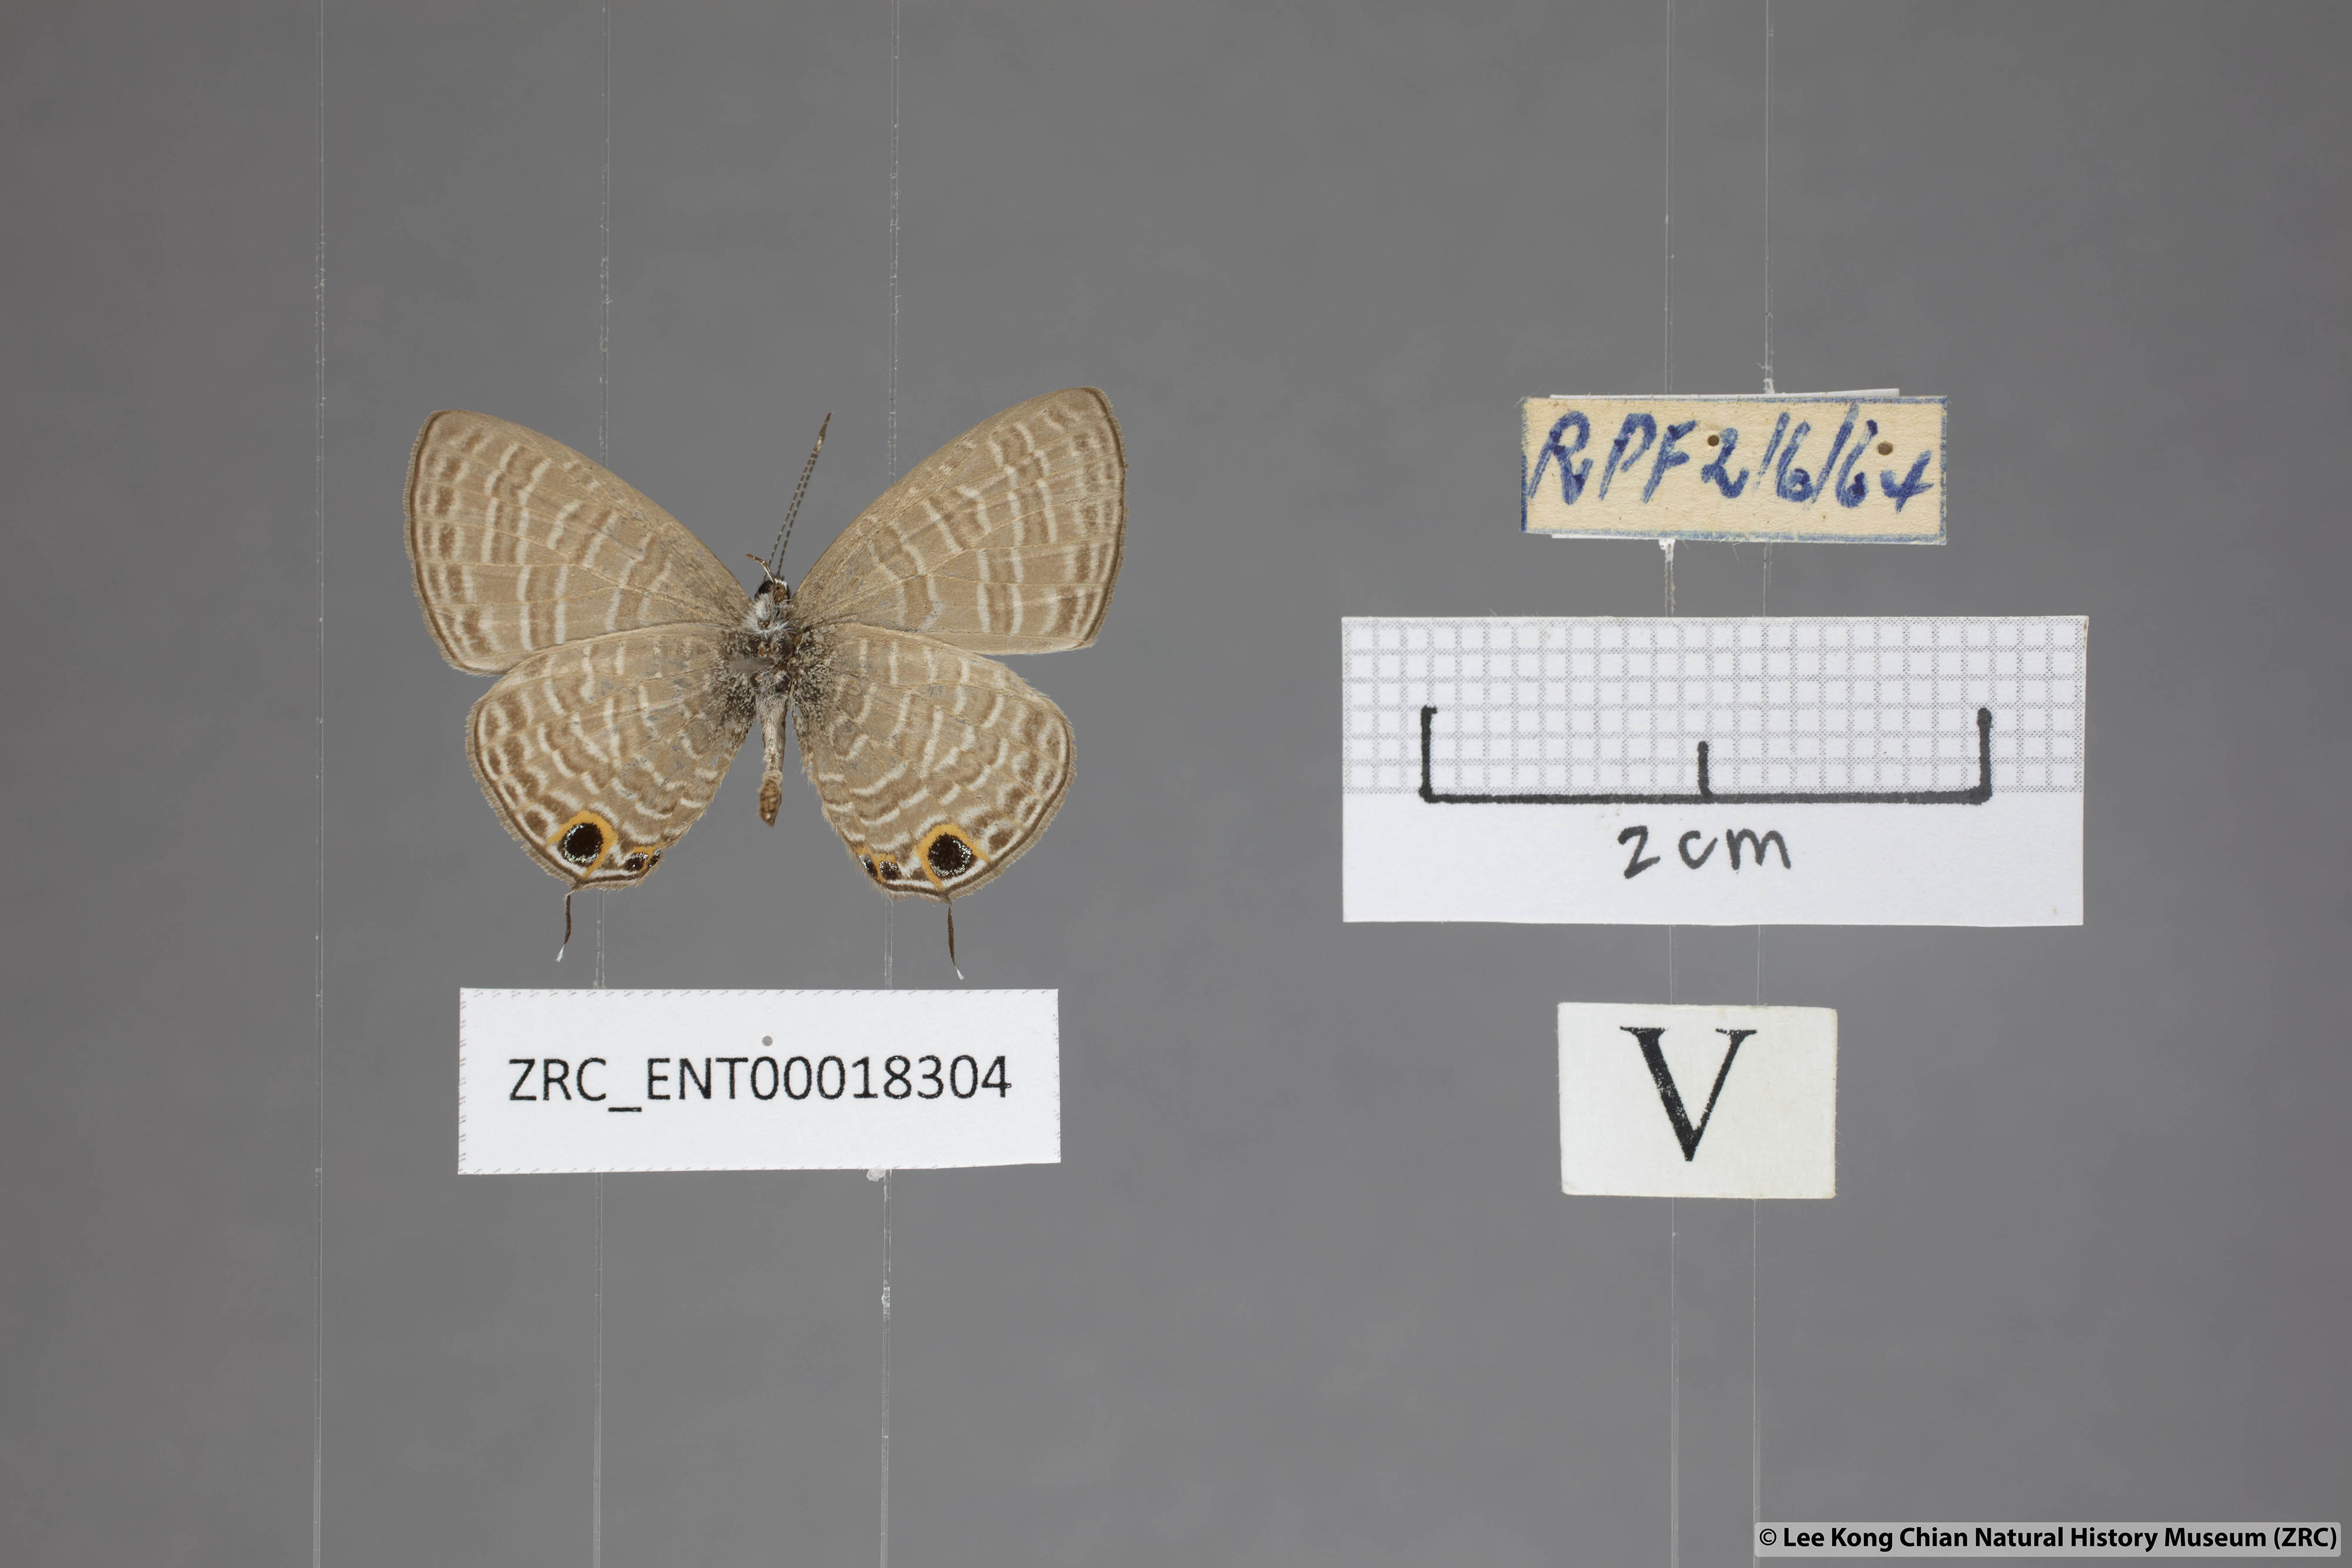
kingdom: Animalia
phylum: Arthropoda
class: Insecta
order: Lepidoptera
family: Lycaenidae
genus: Nacaduba
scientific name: Nacaduba berenice
